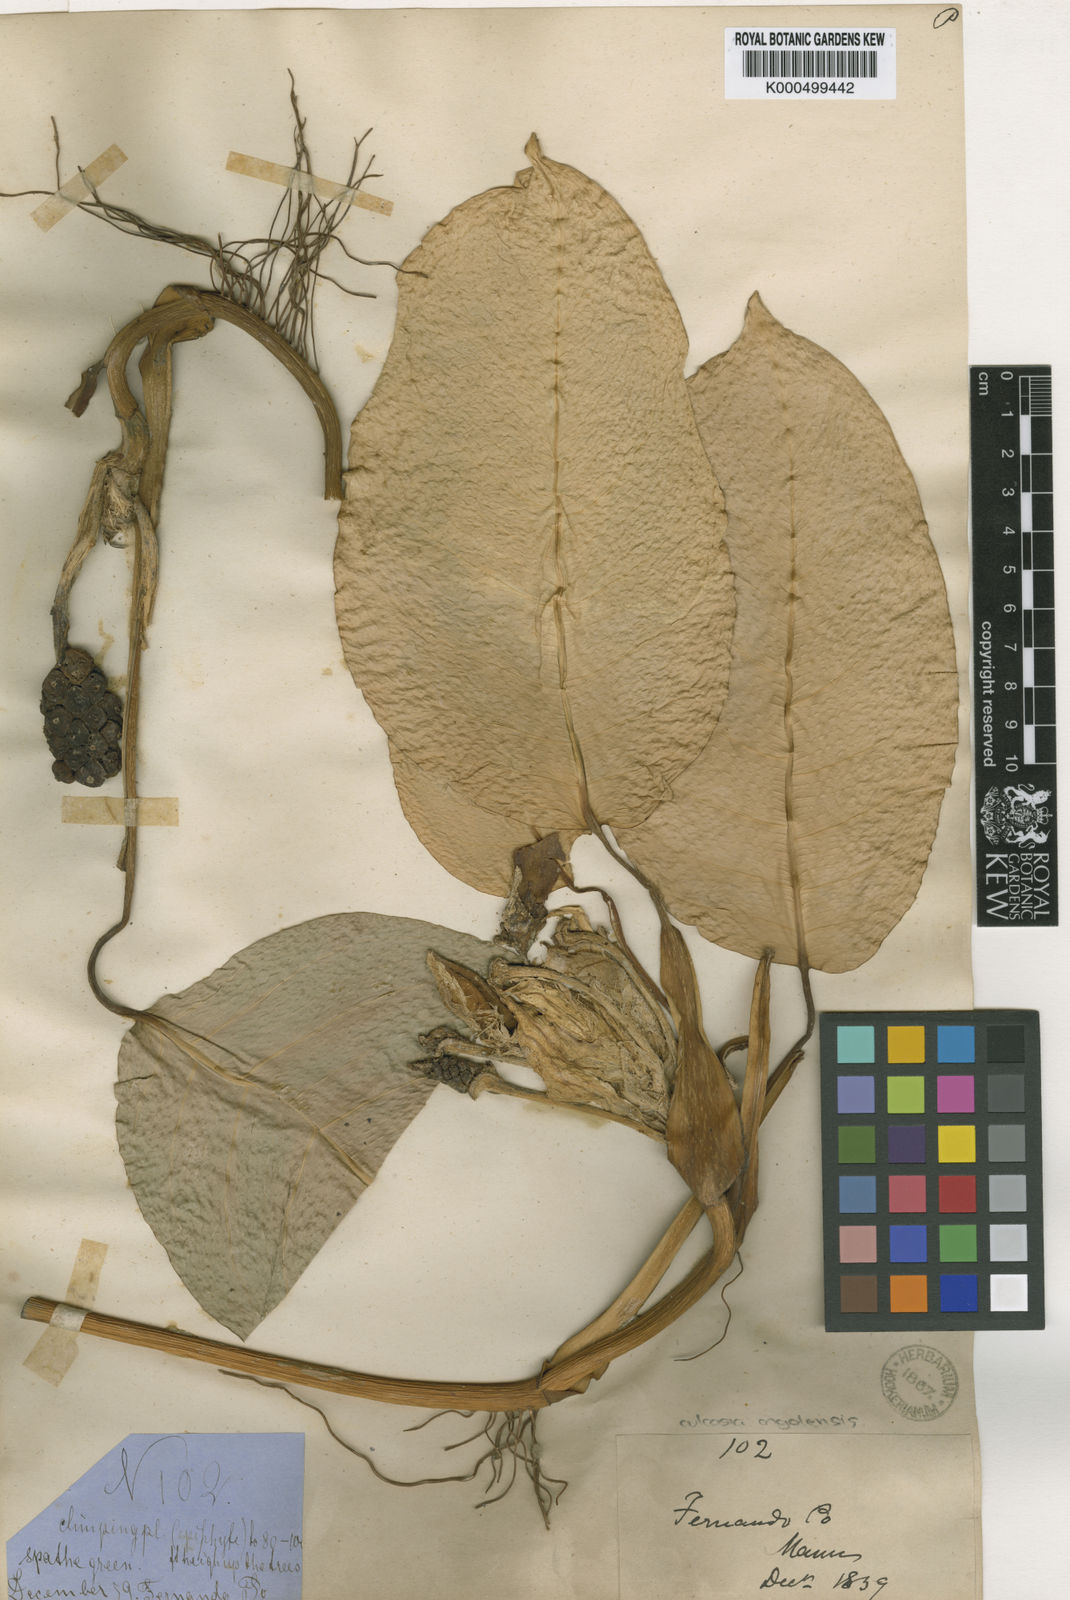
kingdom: Plantae
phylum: Tracheophyta
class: Liliopsida
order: Alismatales
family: Araceae
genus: Culcasia
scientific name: Culcasia
